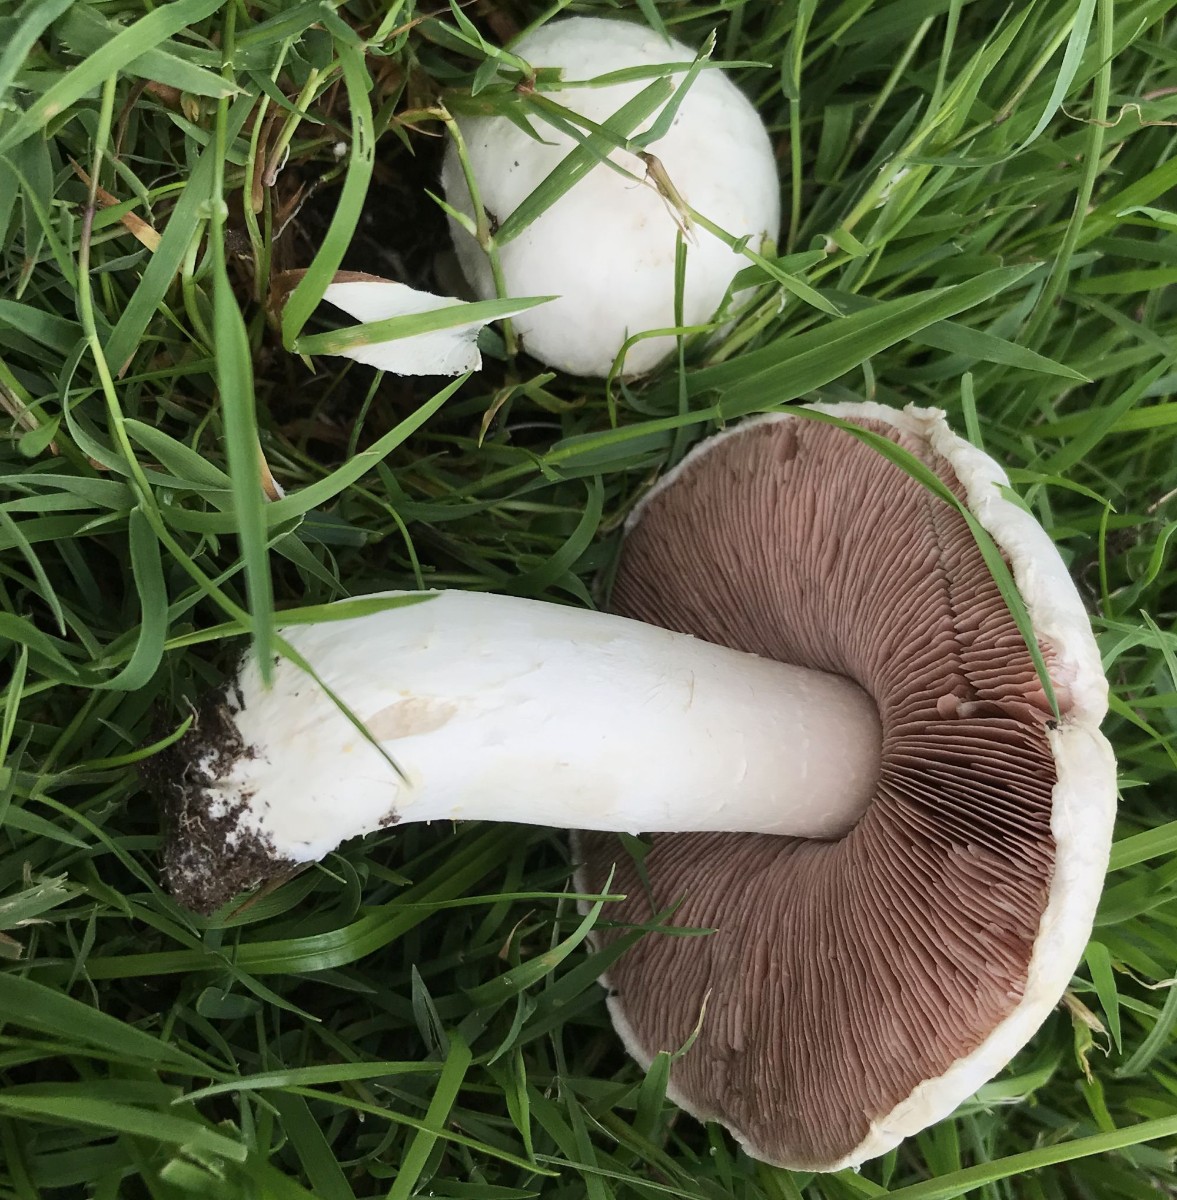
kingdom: Fungi
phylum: Basidiomycota
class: Agaricomycetes
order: Agaricales
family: Agaricaceae
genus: Agaricus
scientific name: Agaricus campestris
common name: mark-champignon
